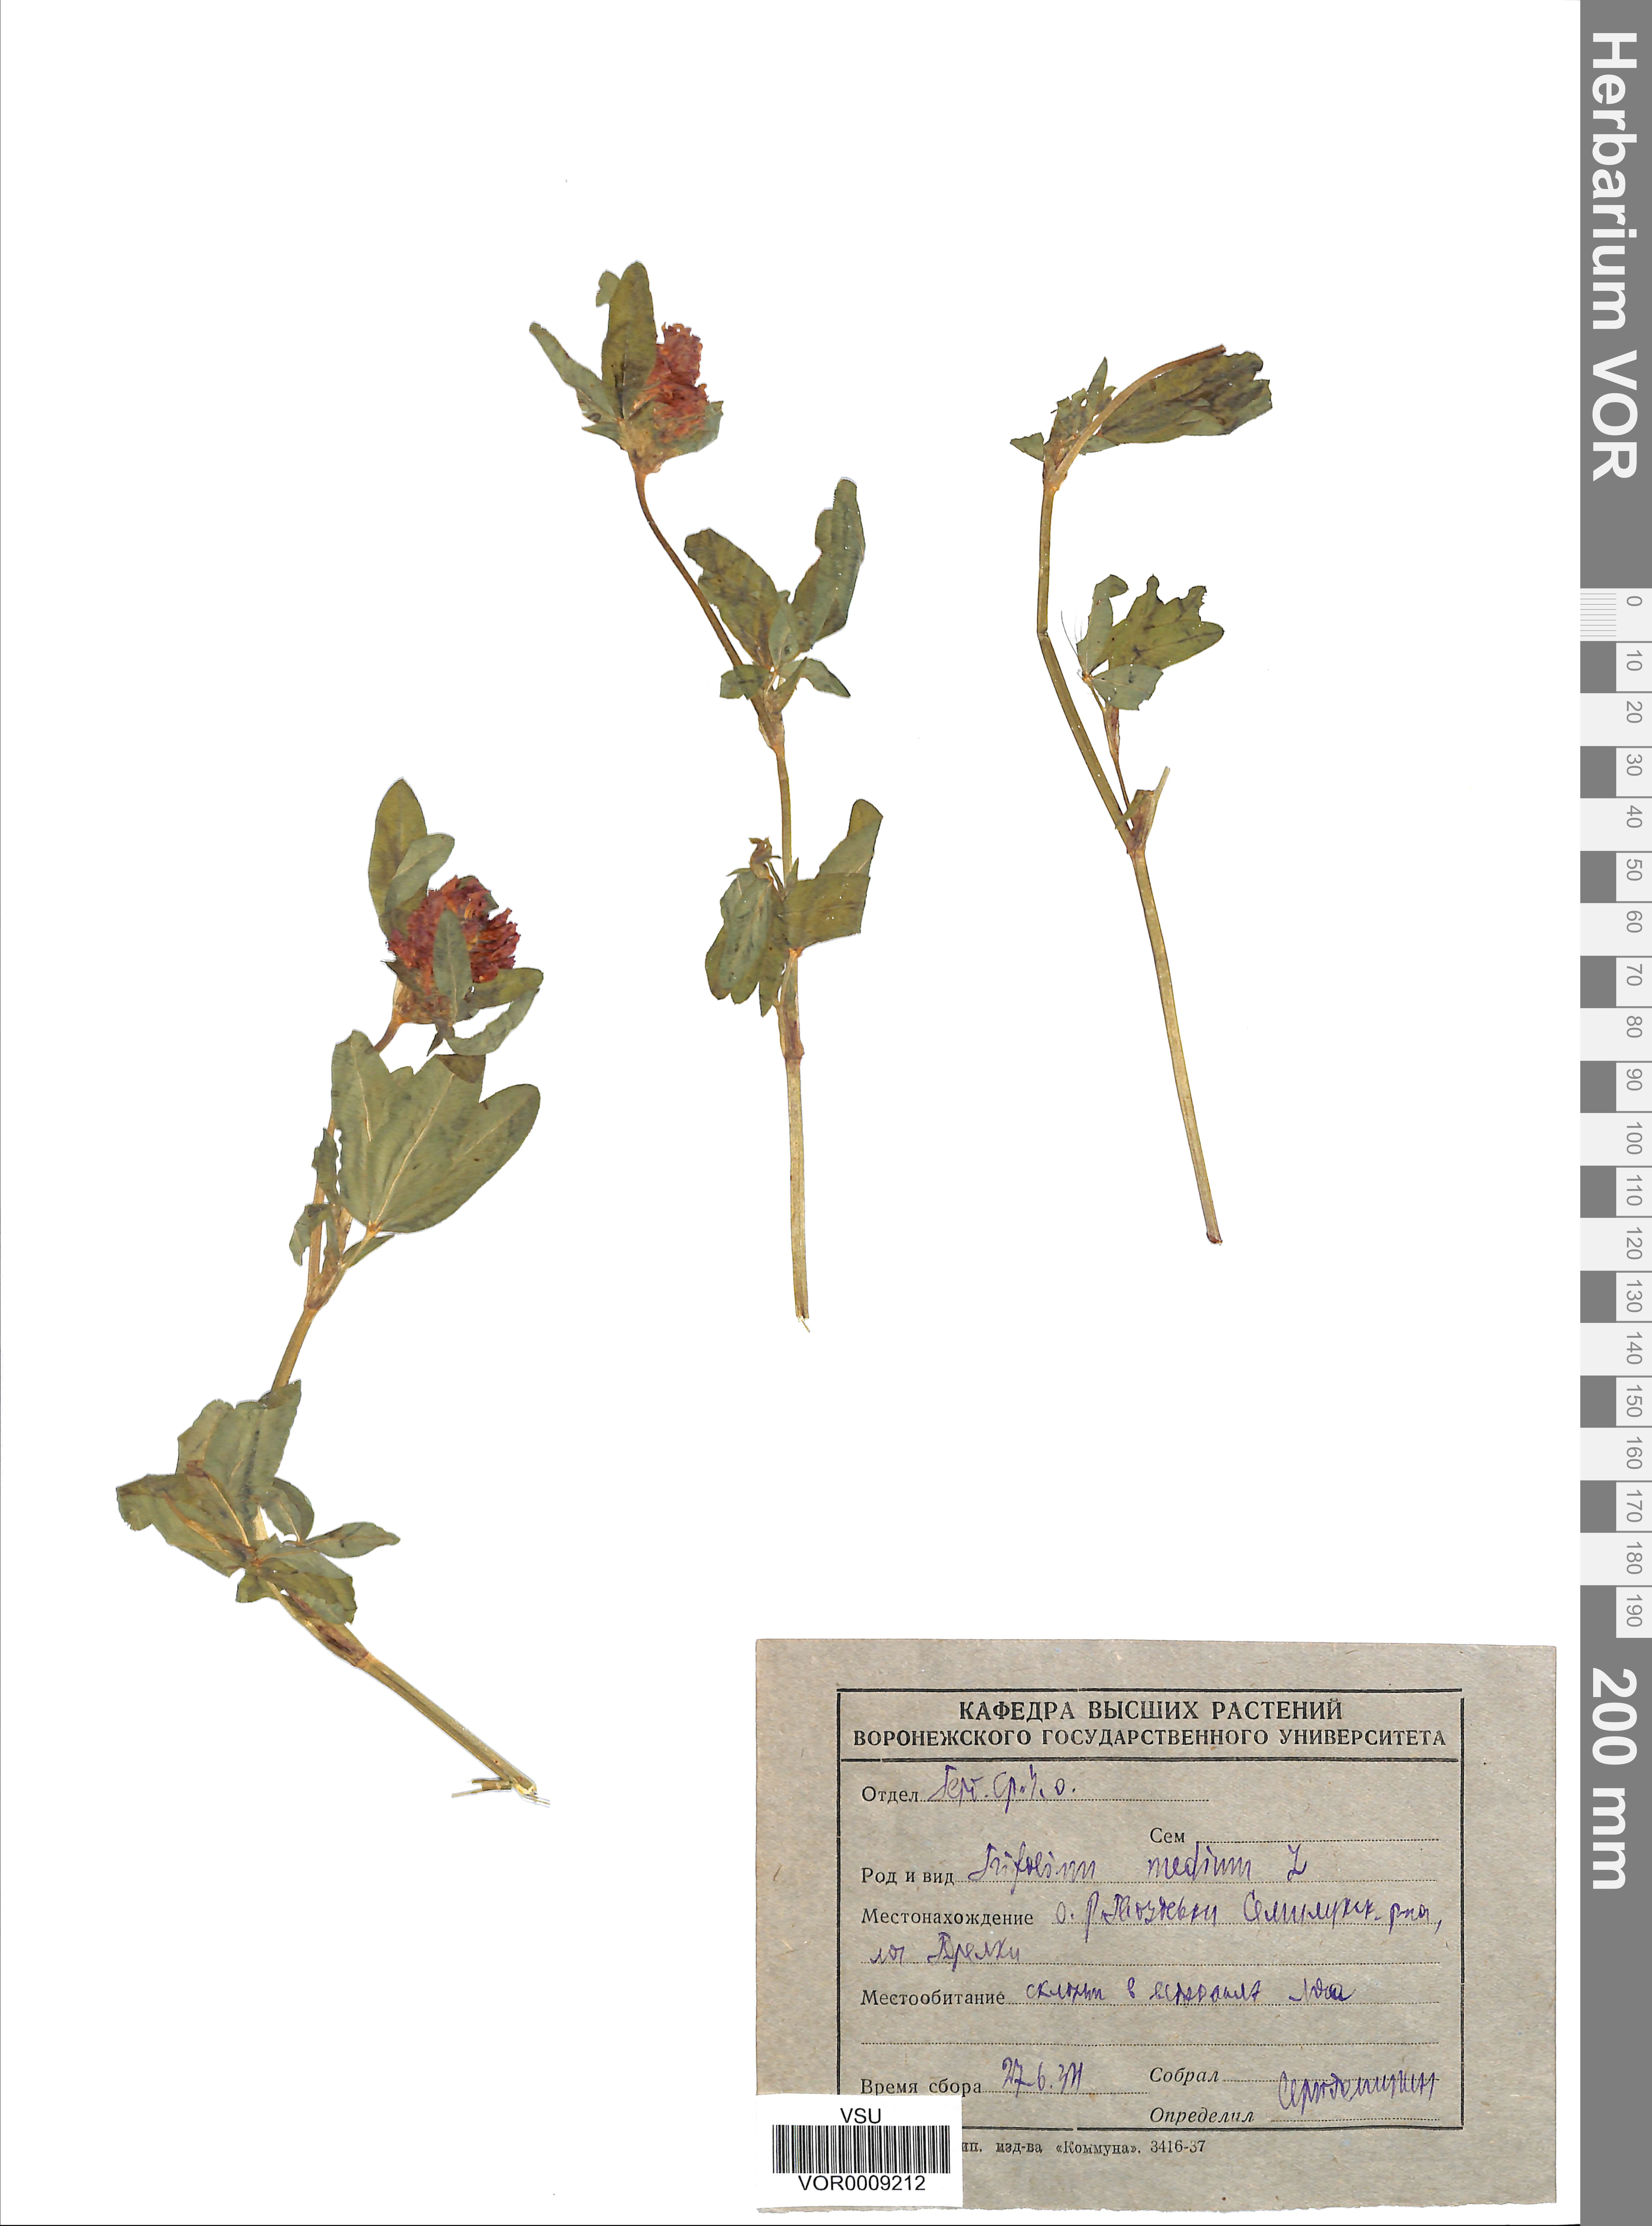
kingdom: Plantae
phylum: Tracheophyta
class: Magnoliopsida
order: Fabales
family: Fabaceae
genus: Trifolium
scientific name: Trifolium medium
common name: Zigzag clover
